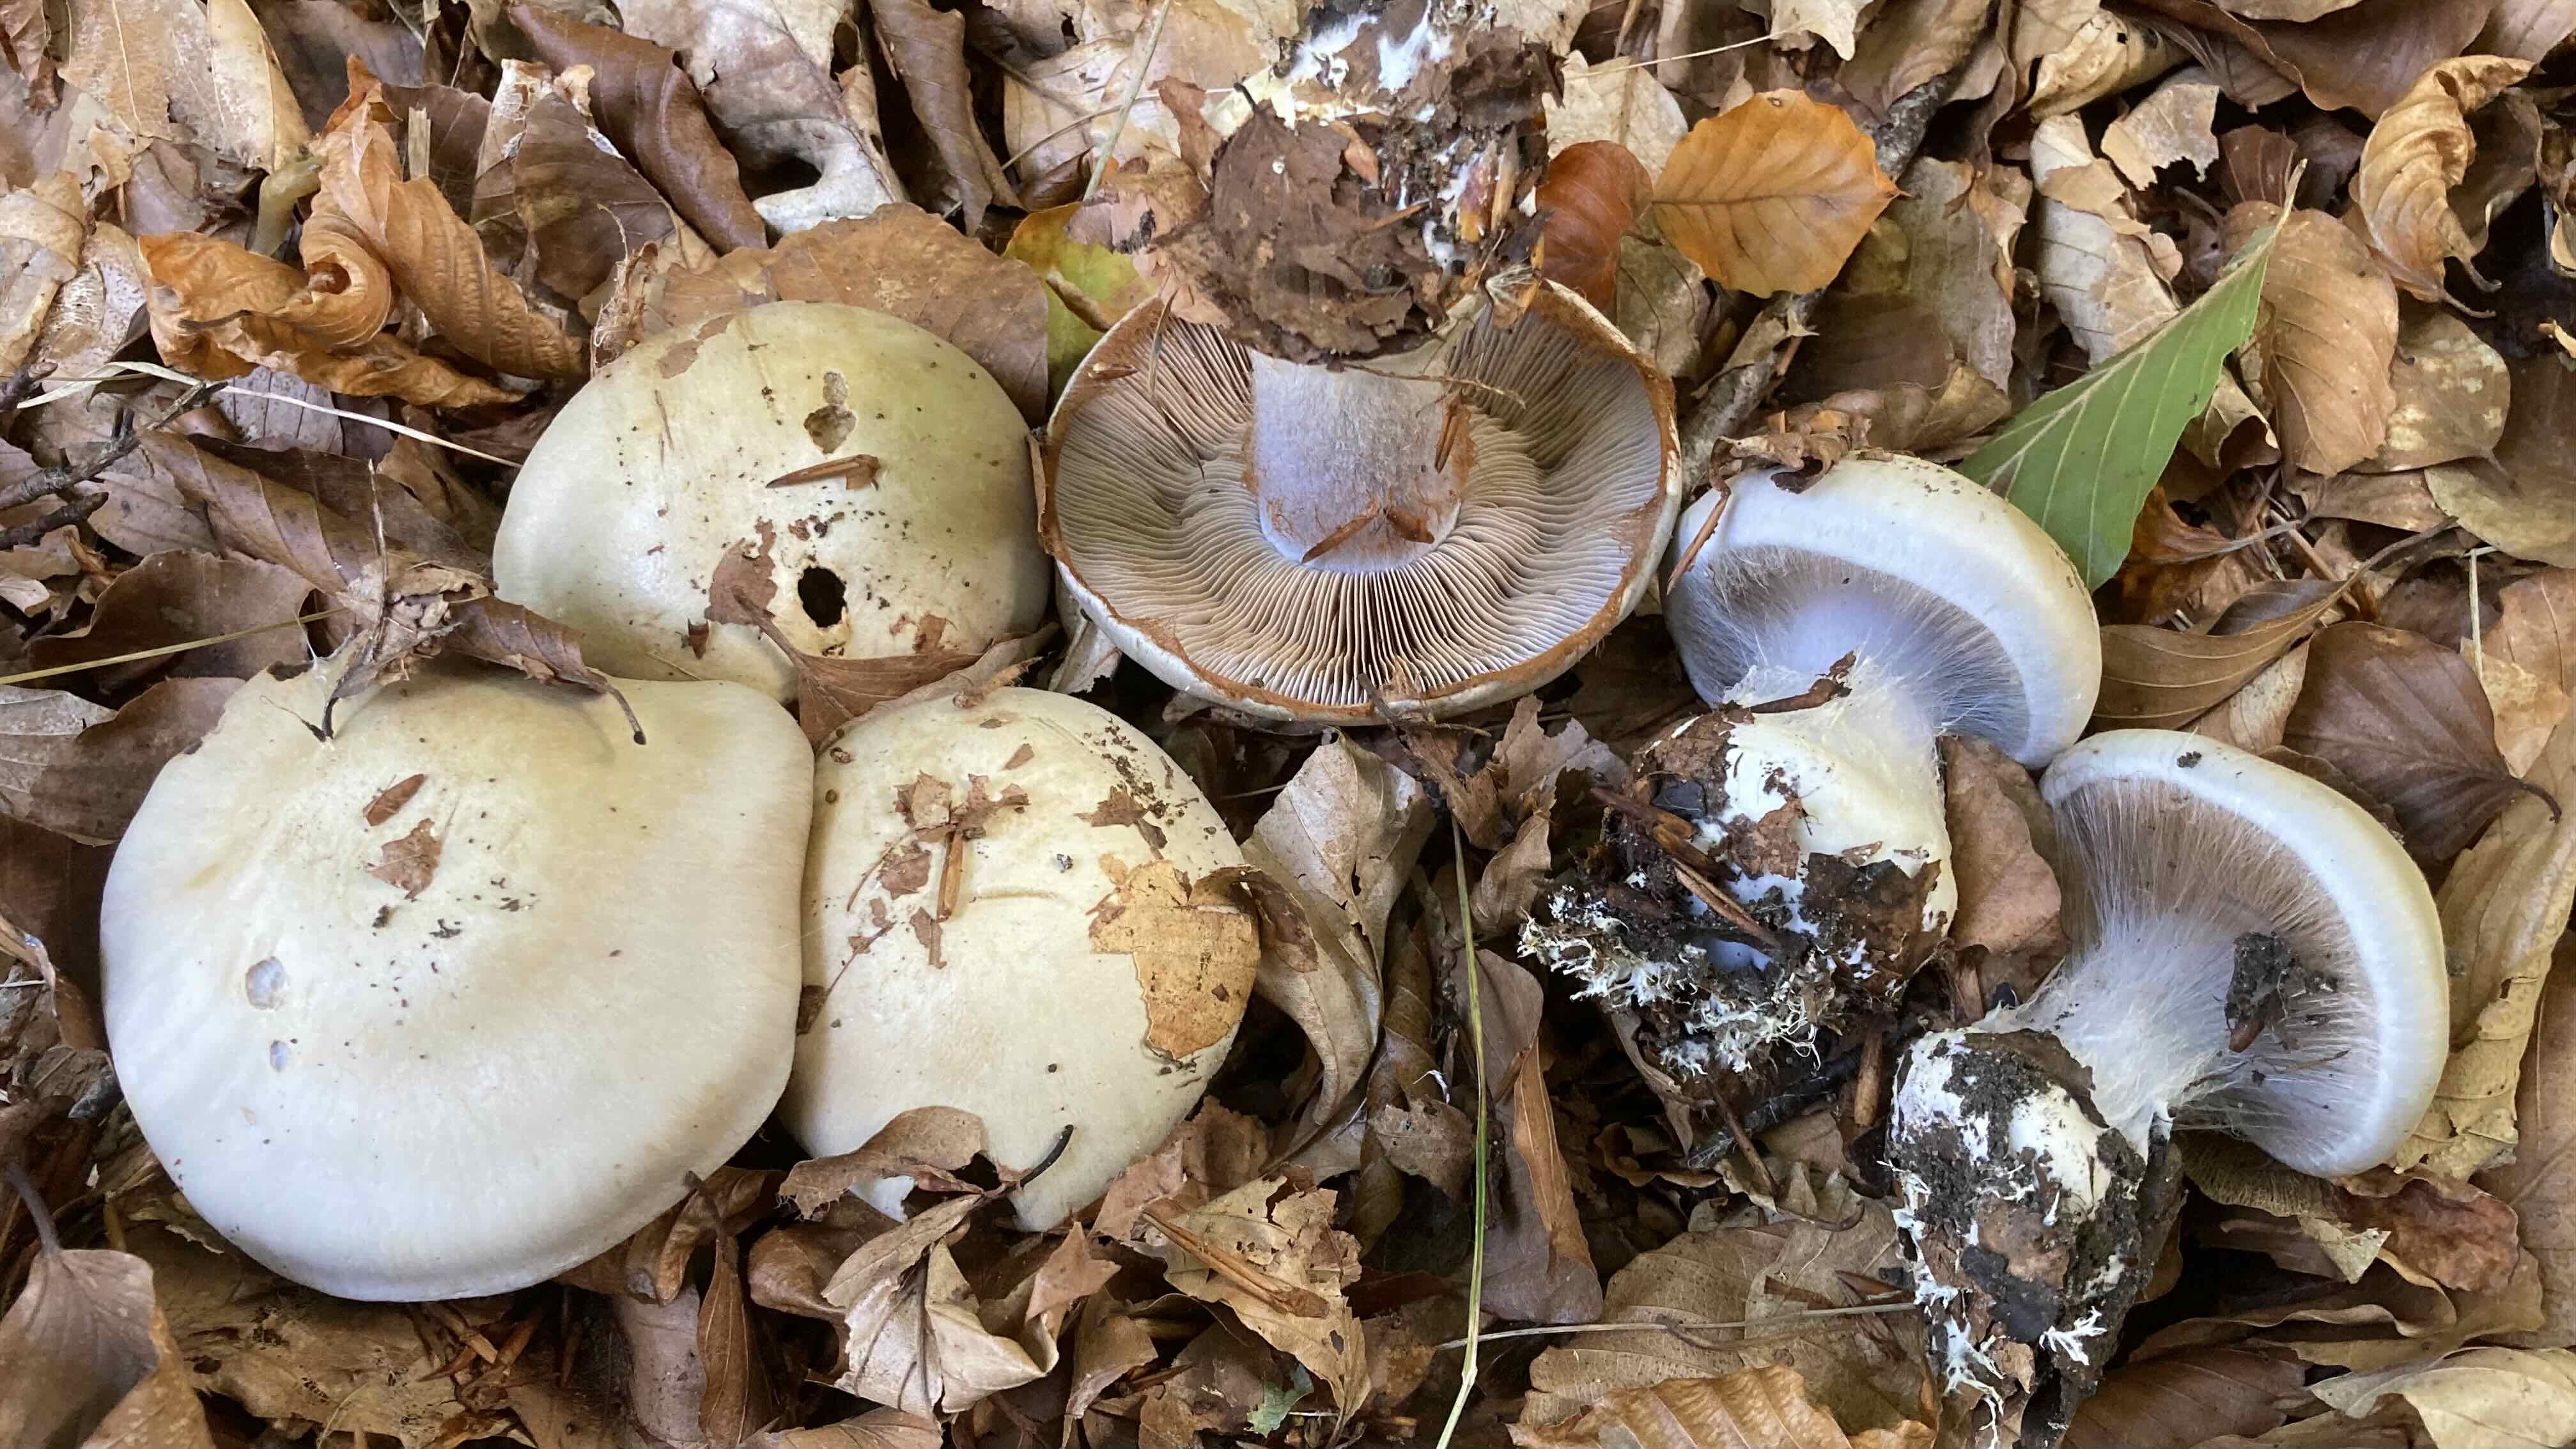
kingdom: Fungi
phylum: Basidiomycota
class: Agaricomycetes
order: Agaricales
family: Cortinariaceae
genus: Cortinarius
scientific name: Cortinarius anserinus
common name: bøge-slørhat
